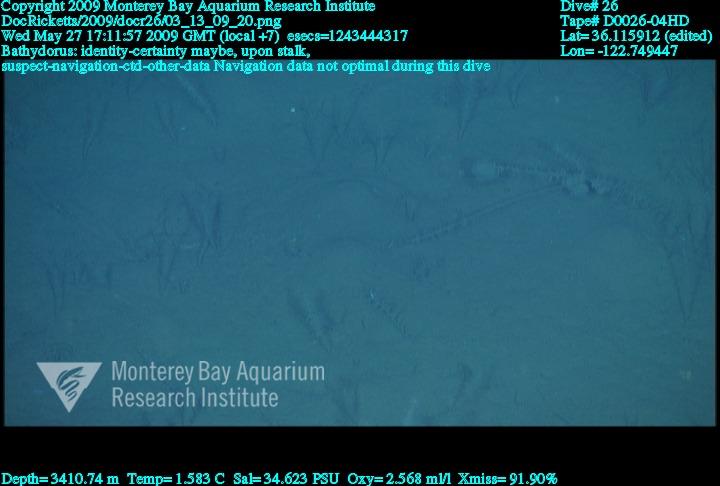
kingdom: Animalia
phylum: Porifera
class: Hexactinellida
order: Lyssacinosida
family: Rossellidae
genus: Bathydorus
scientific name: Bathydorus
